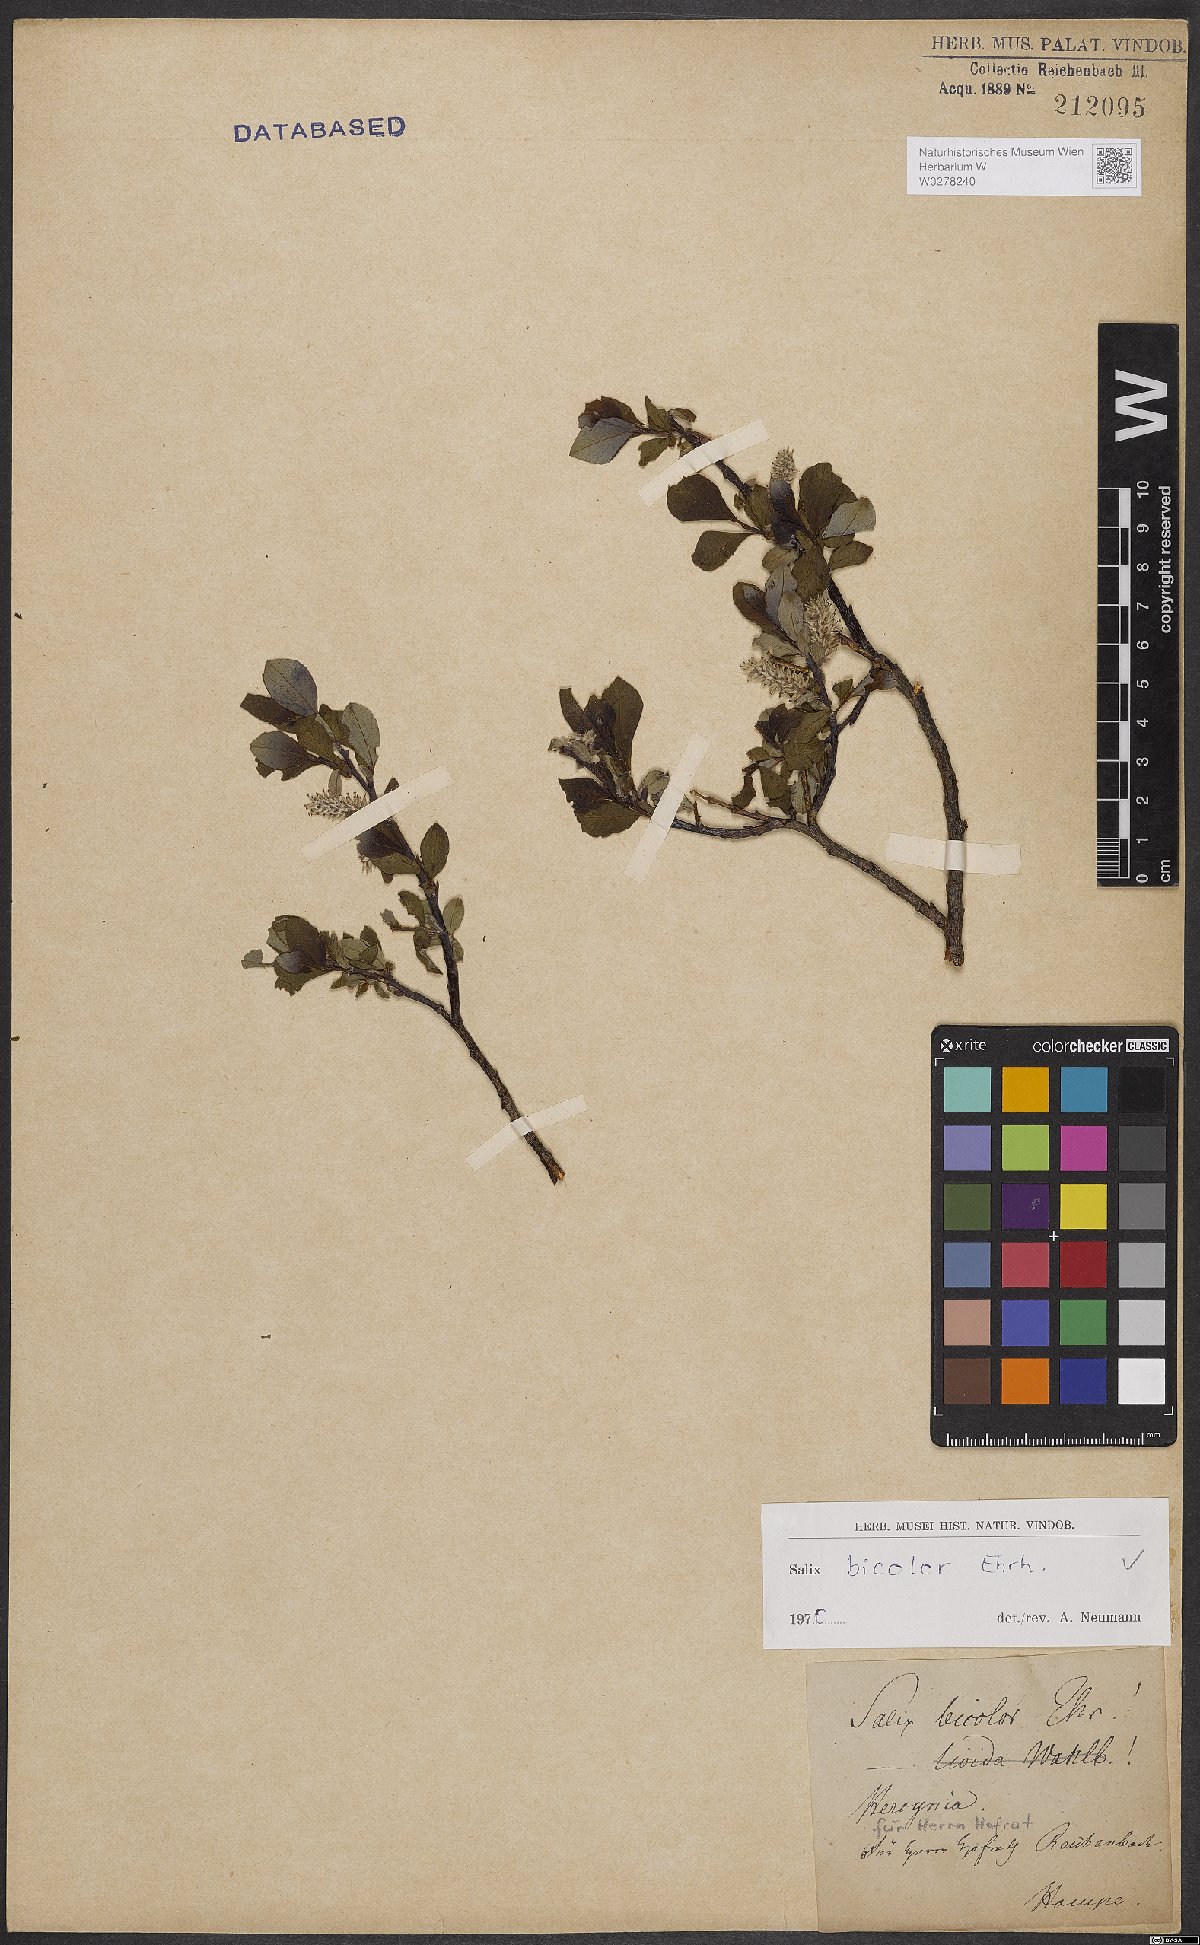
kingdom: Plantae
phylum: Tracheophyta
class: Magnoliopsida
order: Malpighiales
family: Salicaceae
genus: Salix
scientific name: Salix bicolor
